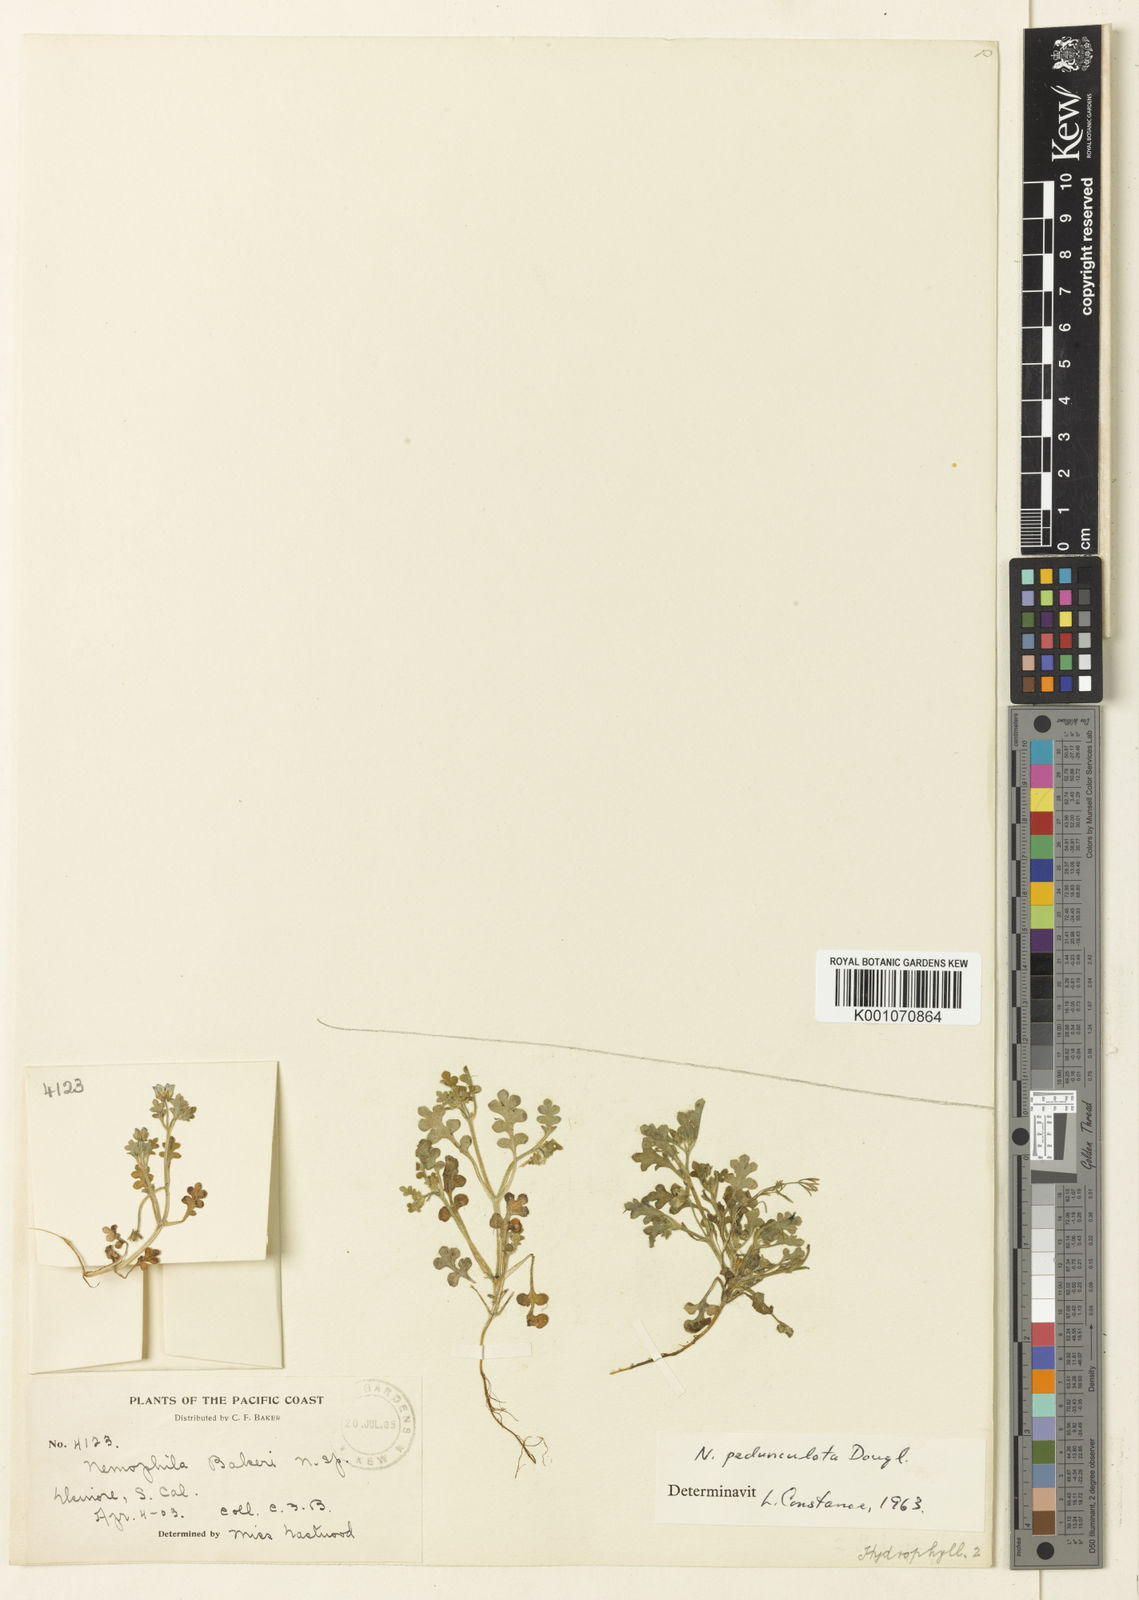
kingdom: Plantae
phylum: Tracheophyta
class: Magnoliopsida
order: Boraginales
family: Hydrophyllaceae
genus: Nemophila
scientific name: Nemophila
